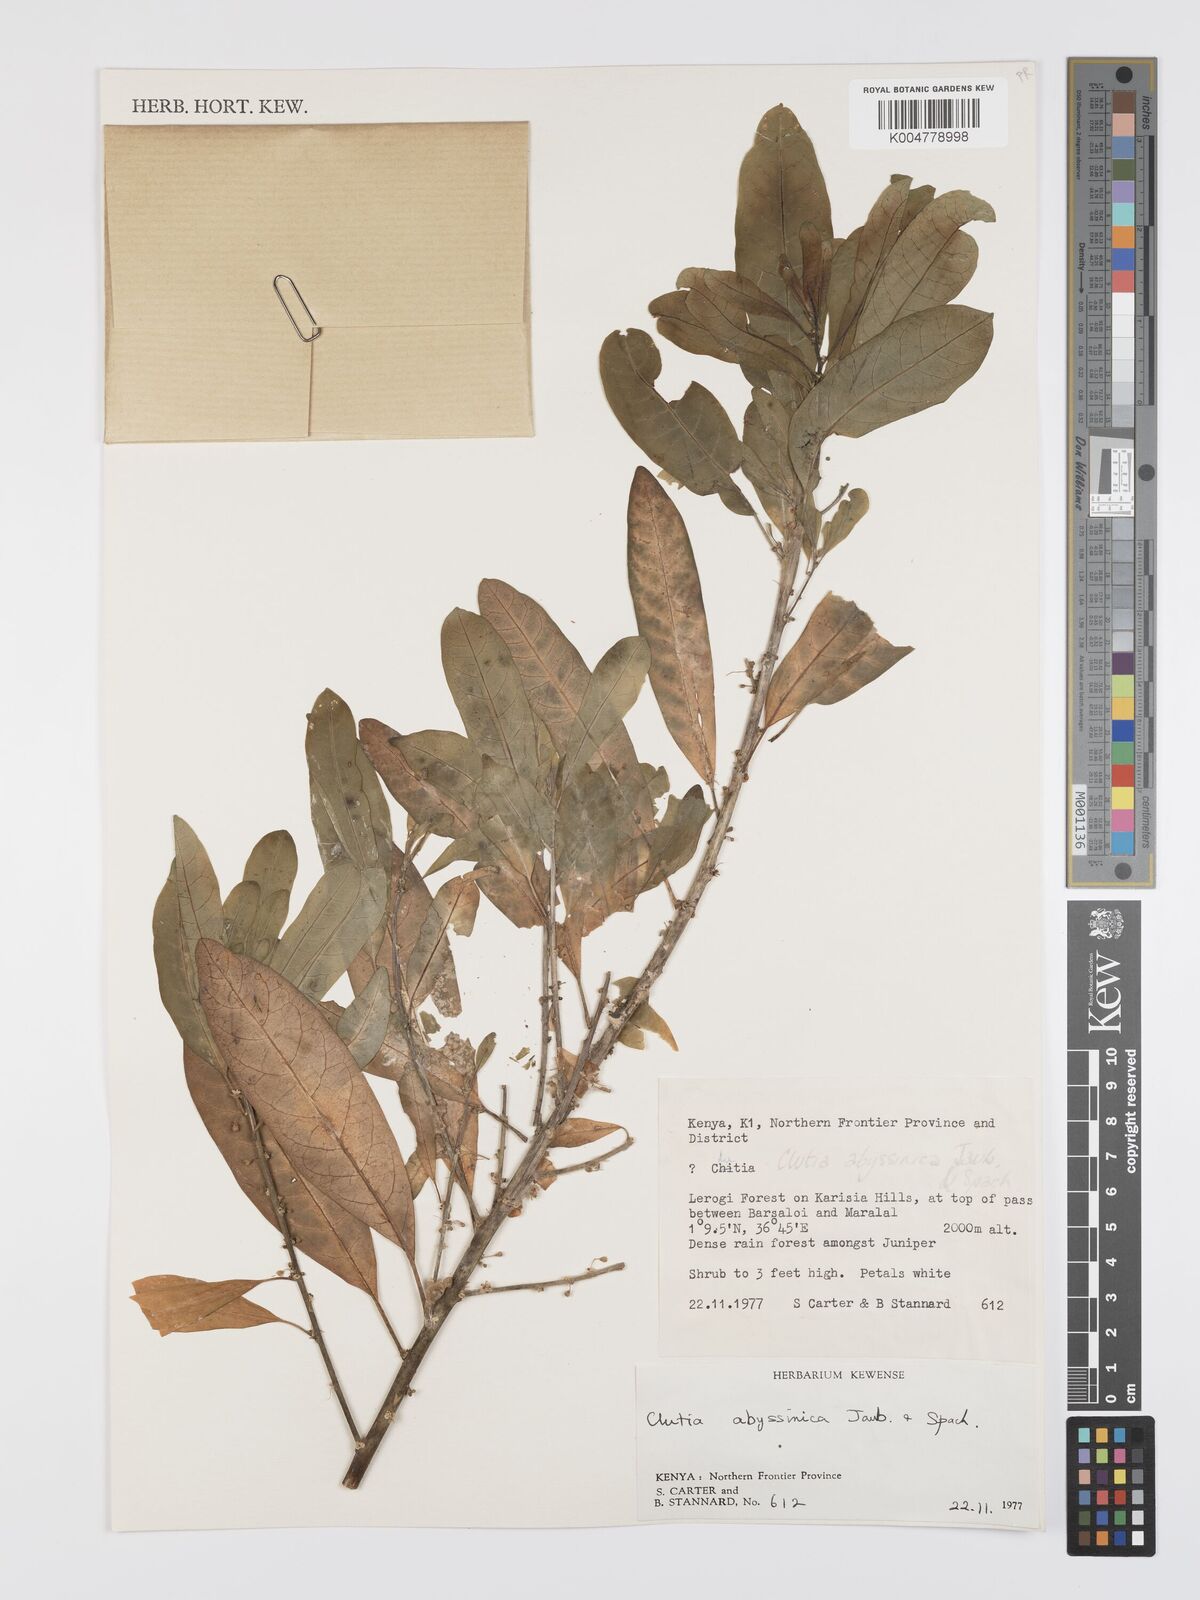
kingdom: Plantae
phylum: Tracheophyta
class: Magnoliopsida
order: Malpighiales
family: Peraceae
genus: Clutia
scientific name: Clutia abyssinica
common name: Large lightning bush
